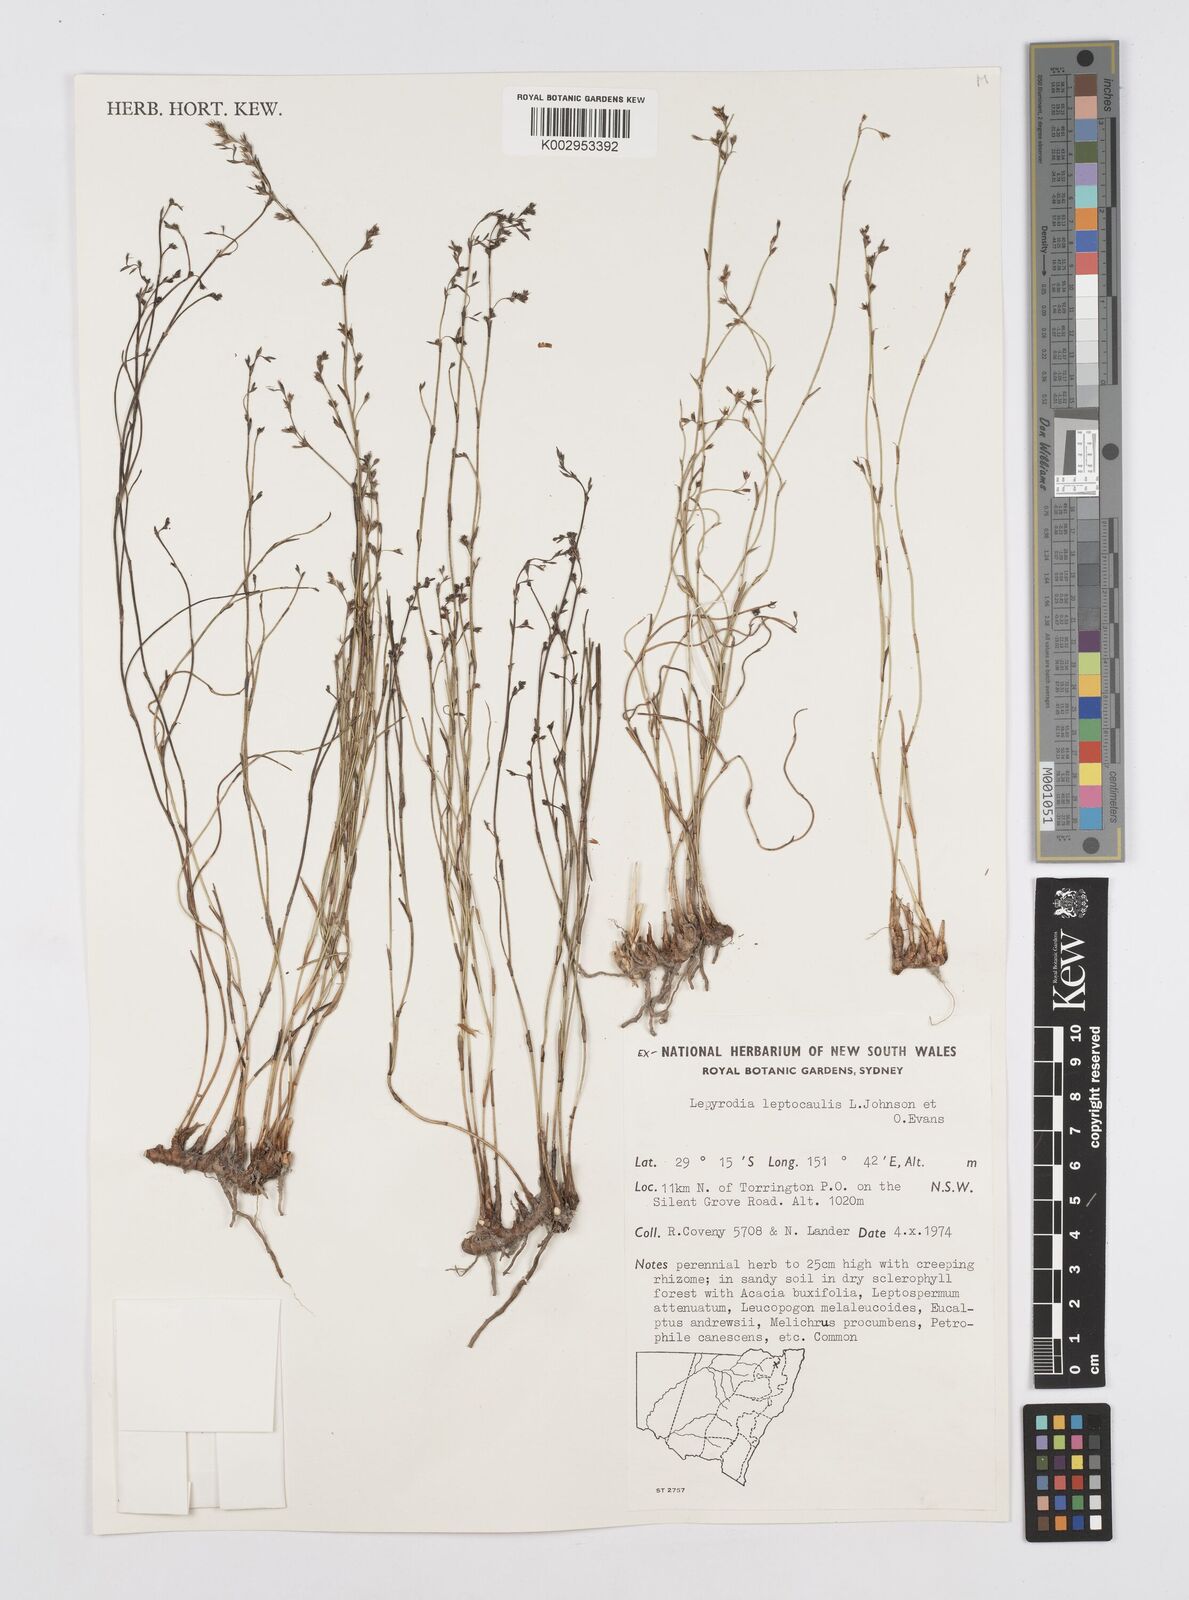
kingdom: Plantae
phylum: Tracheophyta
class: Liliopsida
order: Poales
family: Restionaceae
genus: Lepyrodia
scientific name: Lepyrodia leptocaulis
